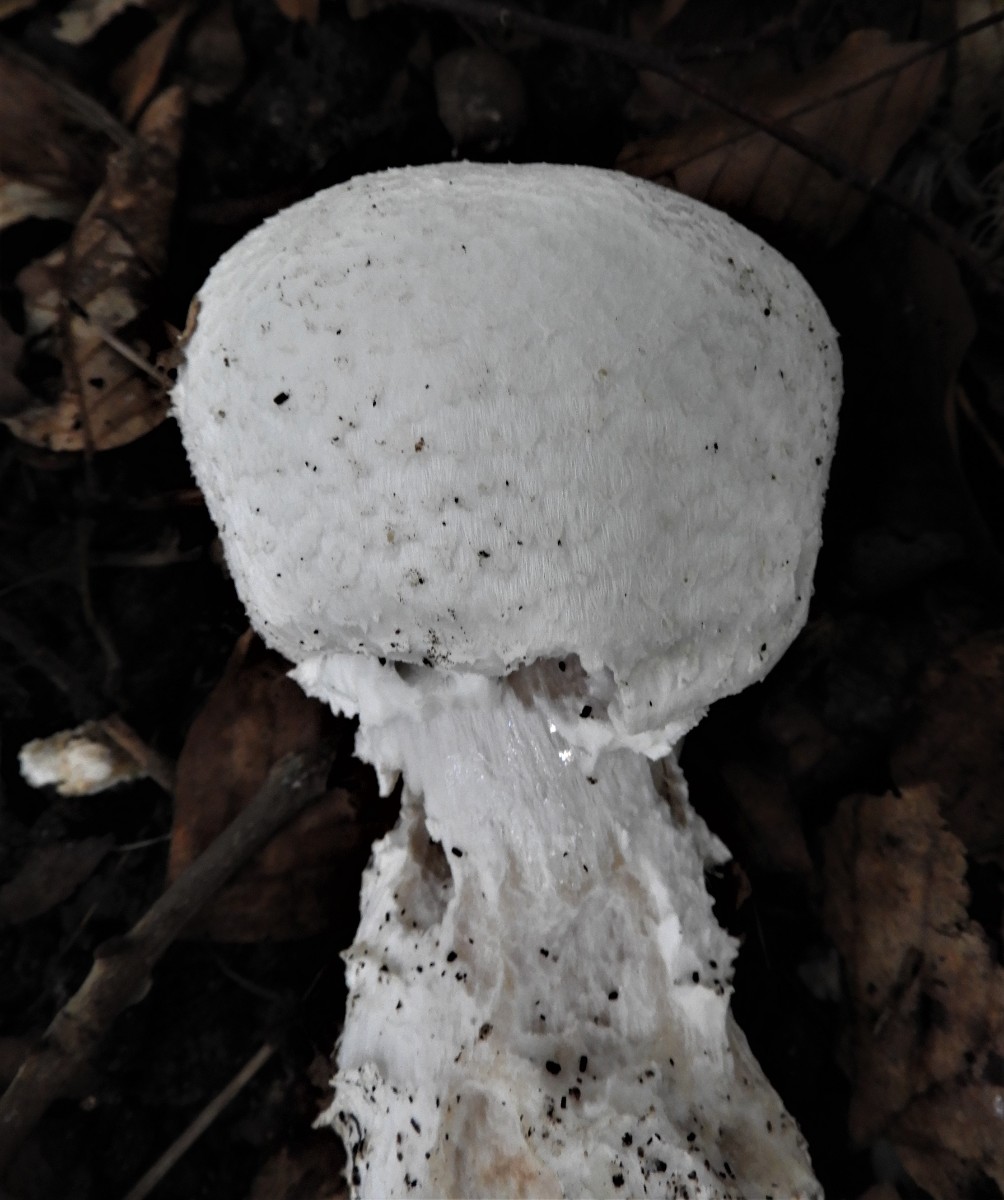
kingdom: Fungi
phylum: Basidiomycota
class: Agaricomycetes
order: Agaricales
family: Agaricaceae
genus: Agaricus
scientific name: Agaricus crocodilinus
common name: landsby-champignon
